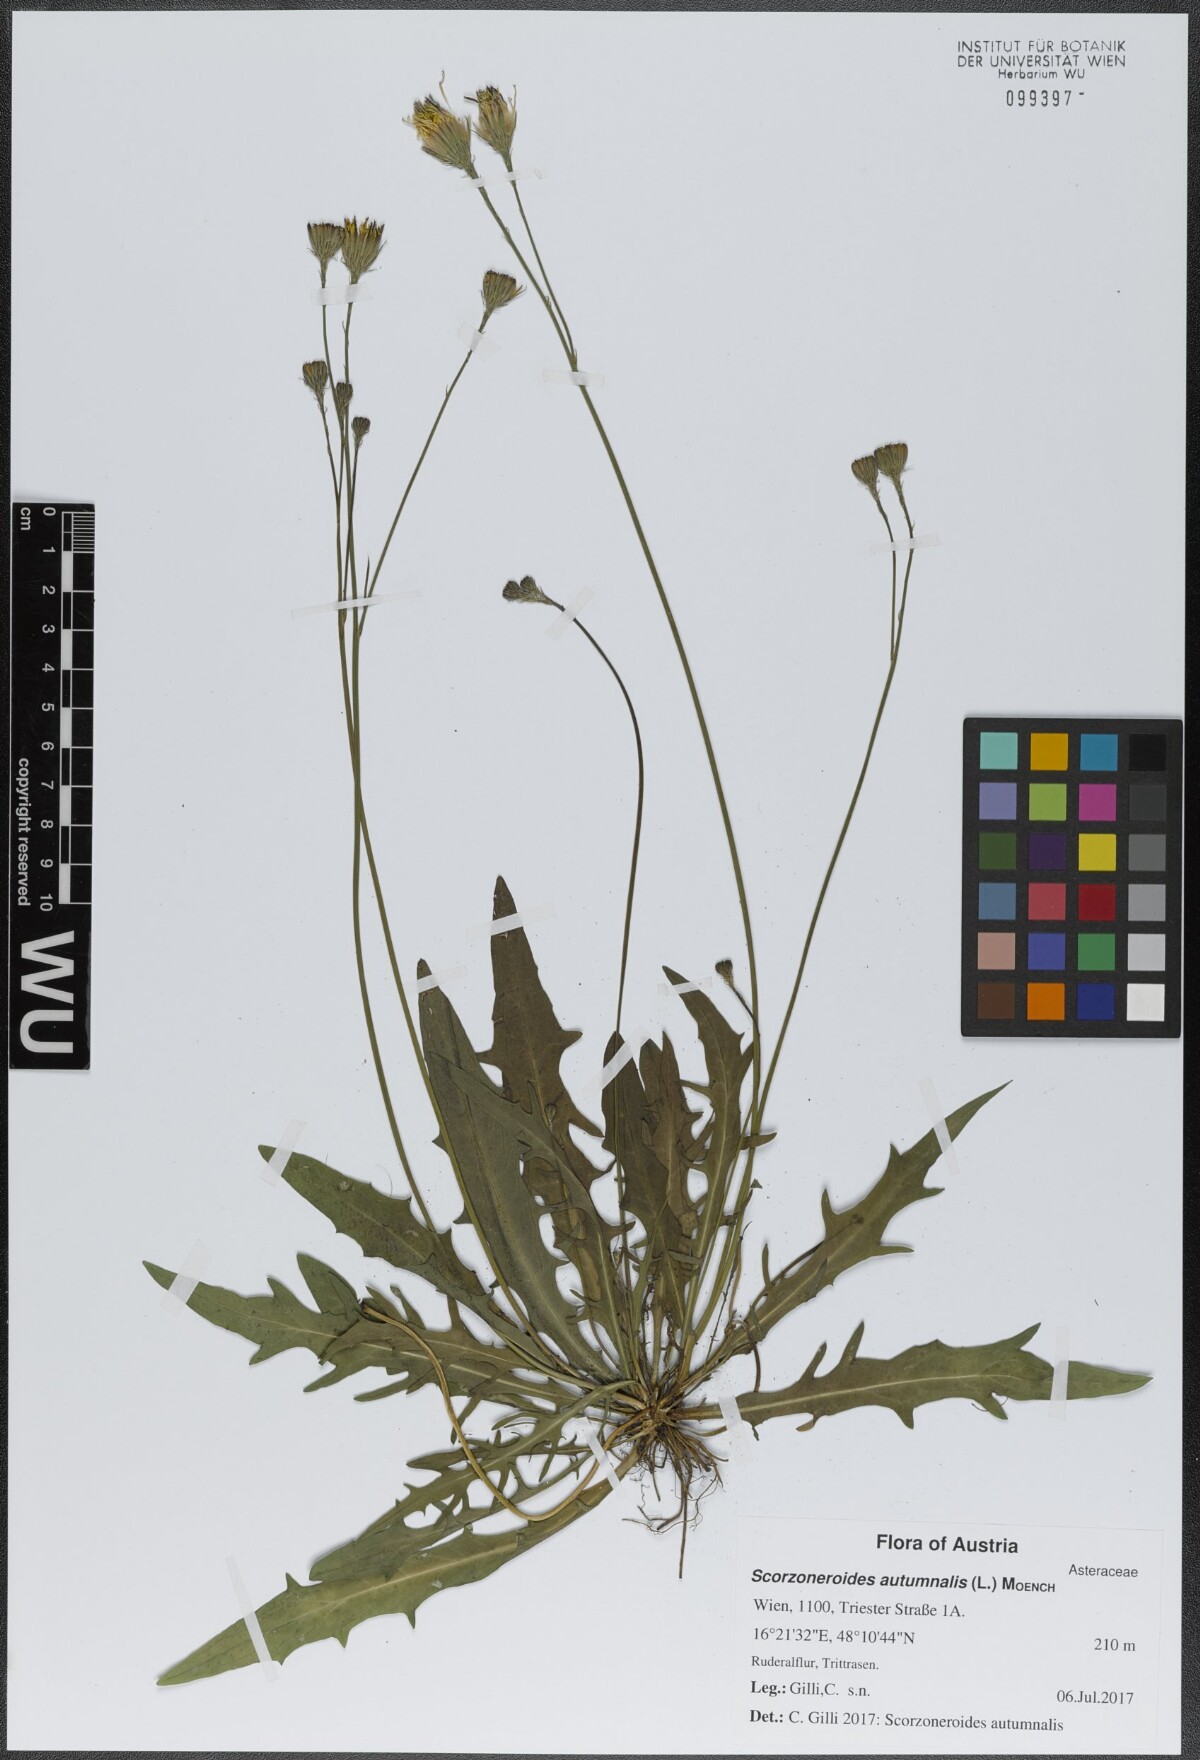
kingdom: Plantae
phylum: Tracheophyta
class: Magnoliopsida
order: Asterales
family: Asteraceae
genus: Scorzoneroides
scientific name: Scorzoneroides autumnalis
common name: Autumn hawkbit
